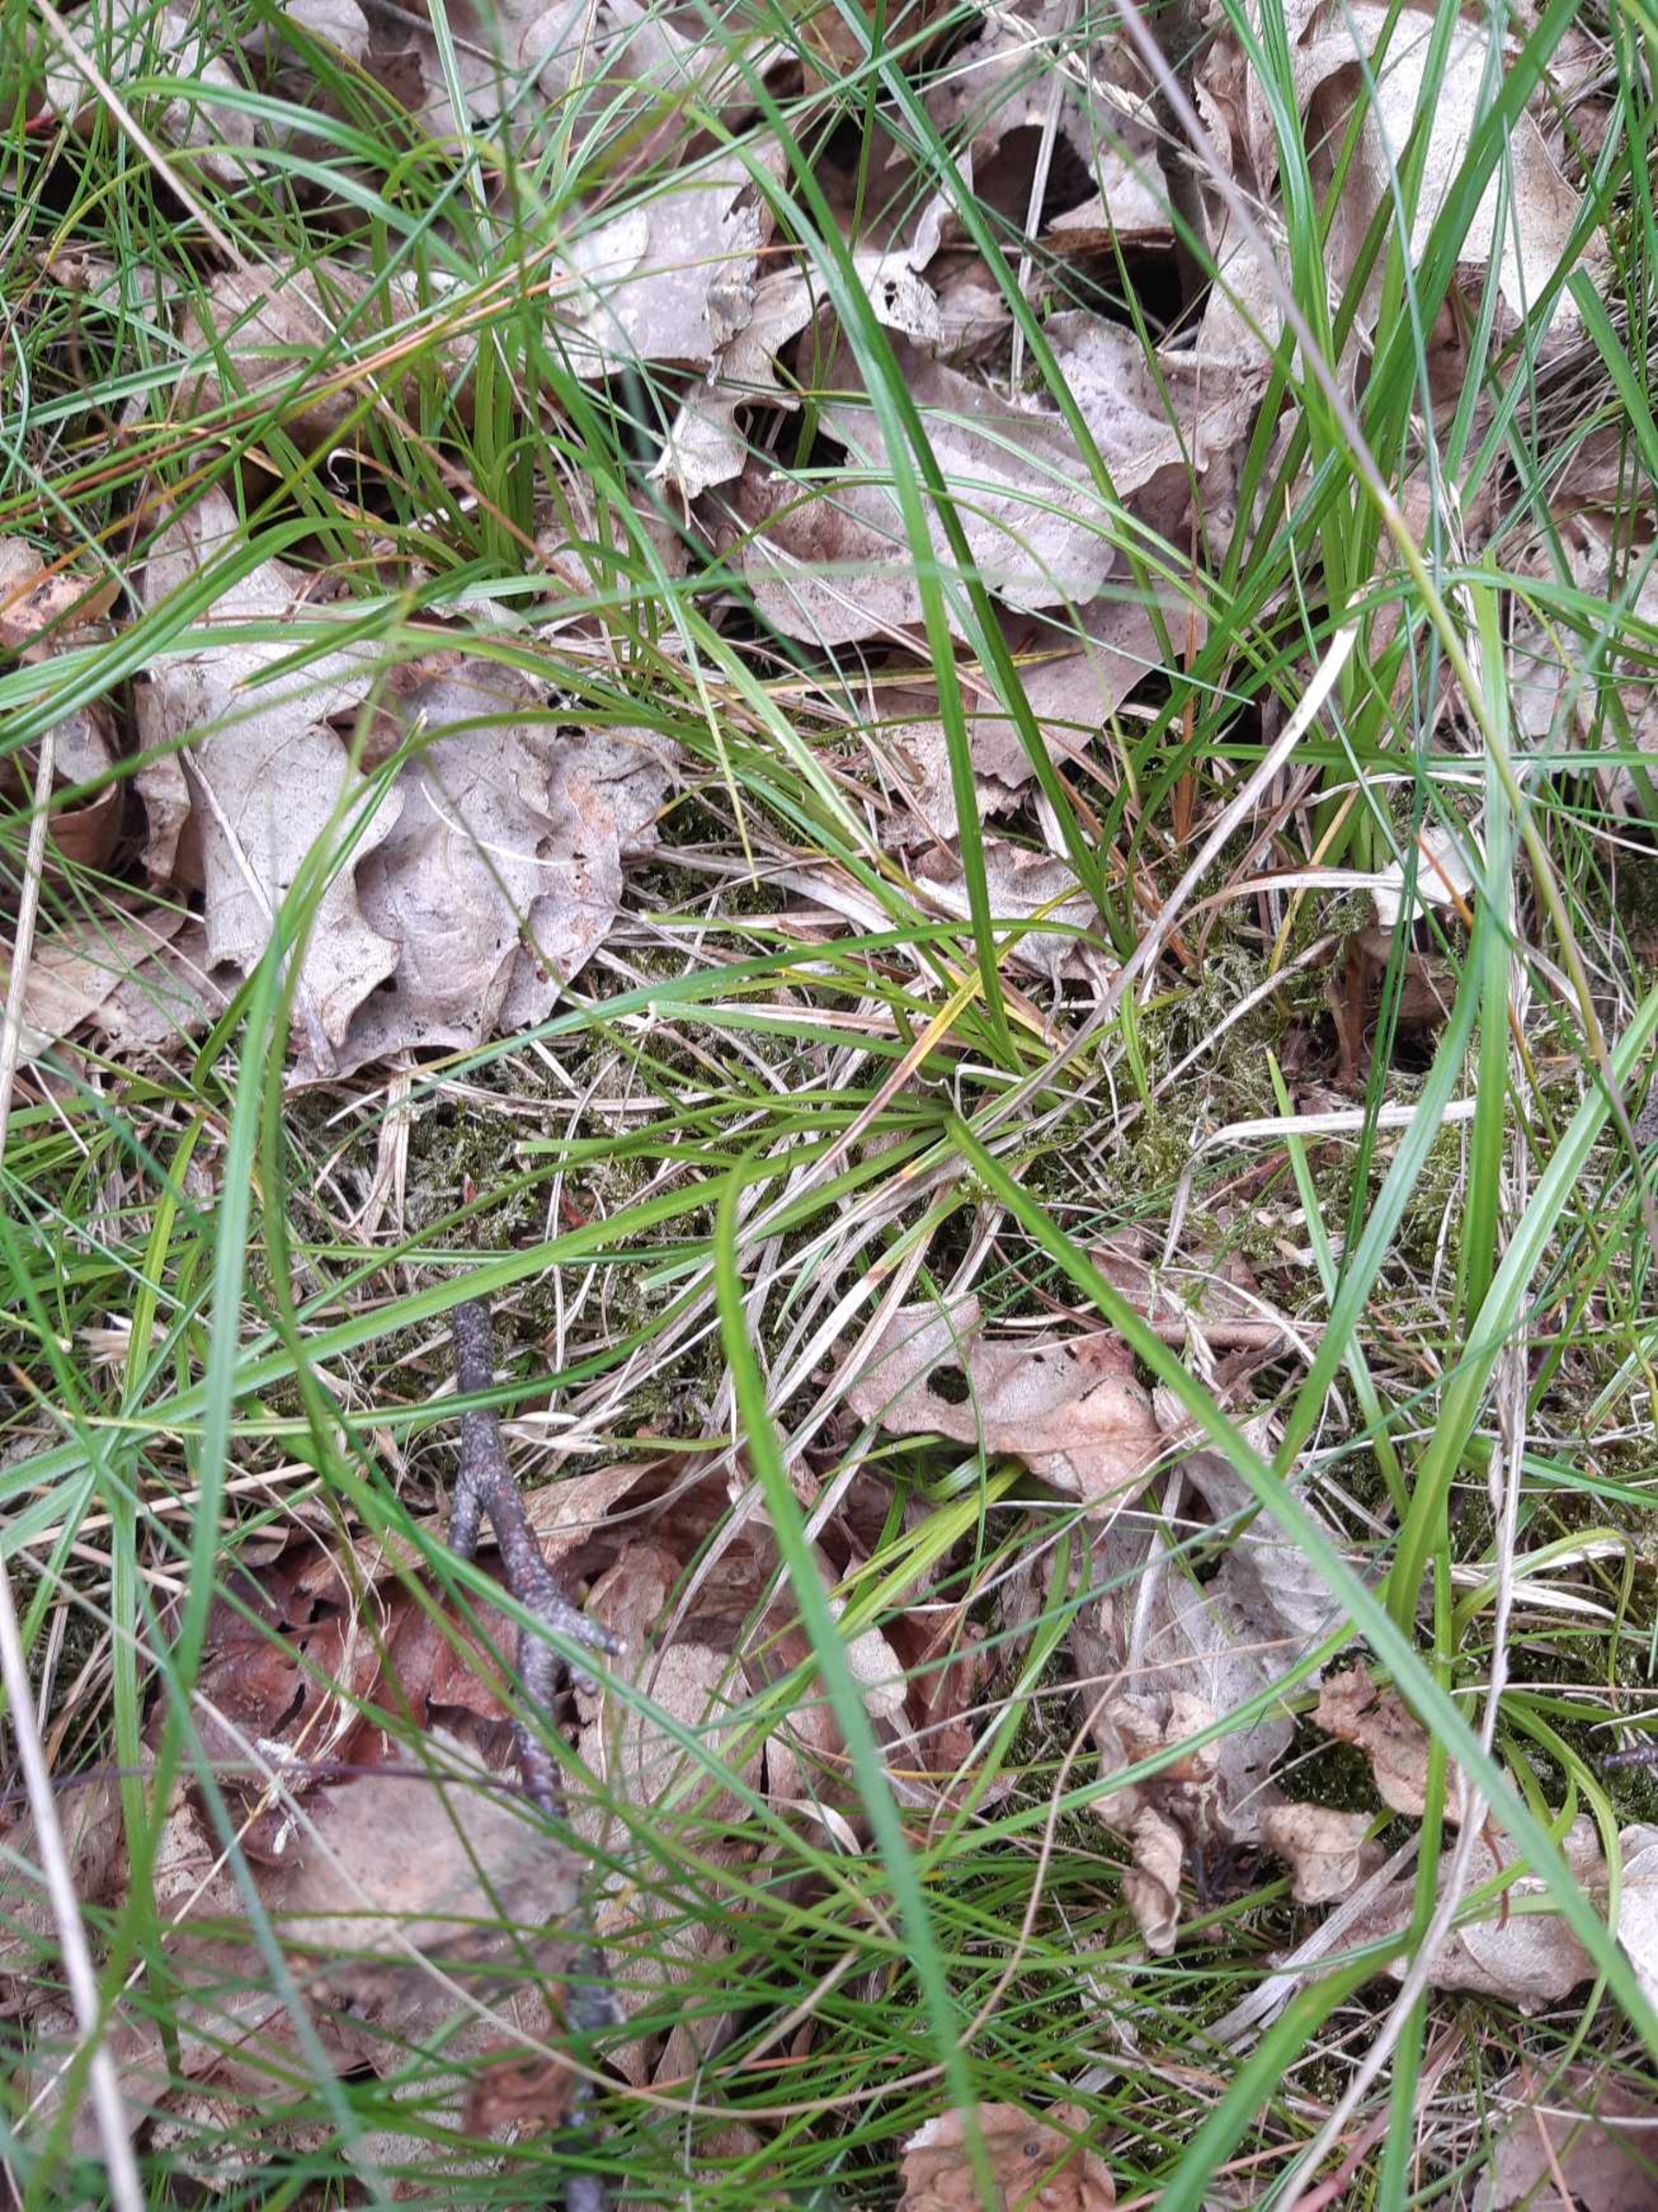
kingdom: Plantae
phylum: Tracheophyta
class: Liliopsida
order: Poales
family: Cyperaceae
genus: Carex
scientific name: Carex pilulifera
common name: Pille-star
